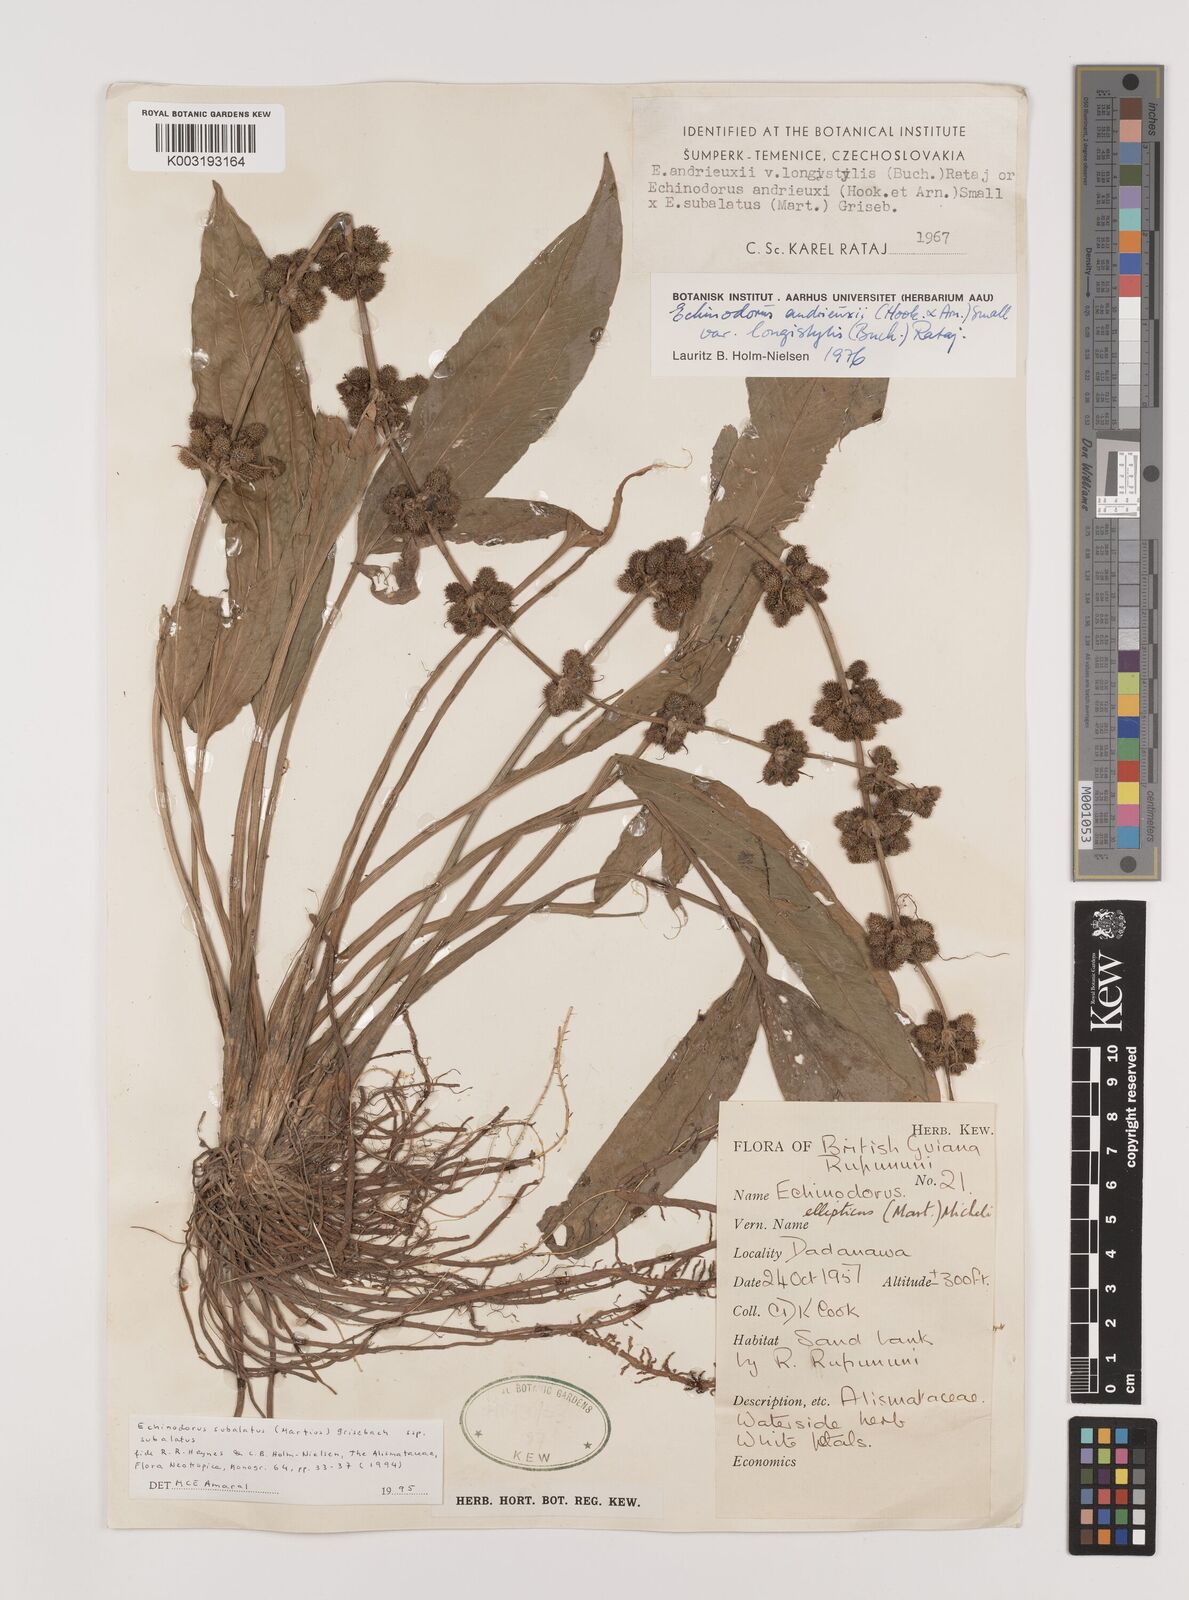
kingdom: Plantae
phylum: Tracheophyta
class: Liliopsida
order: Alismatales
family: Alismataceae
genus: Echinodorus
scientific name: Echinodorus
